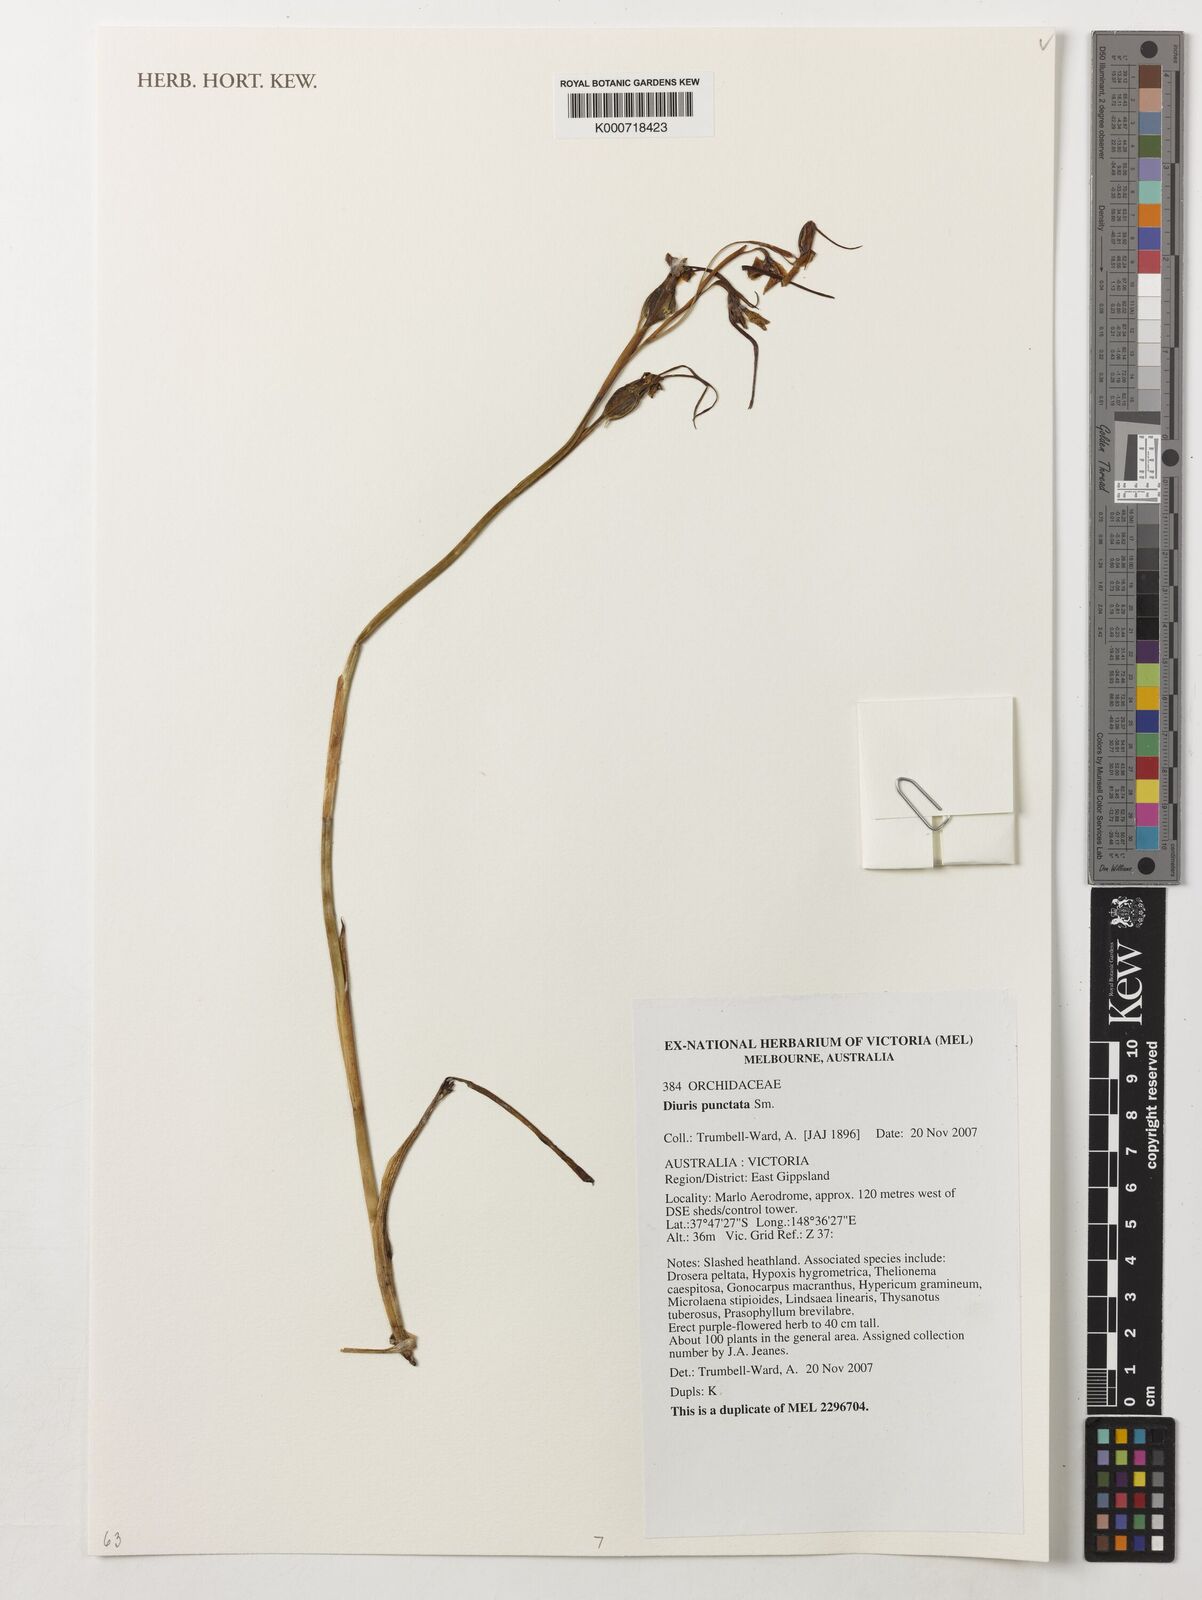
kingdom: Plantae
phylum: Tracheophyta
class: Liliopsida
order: Asparagales
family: Orchidaceae
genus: Diuris
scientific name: Diuris punctata
